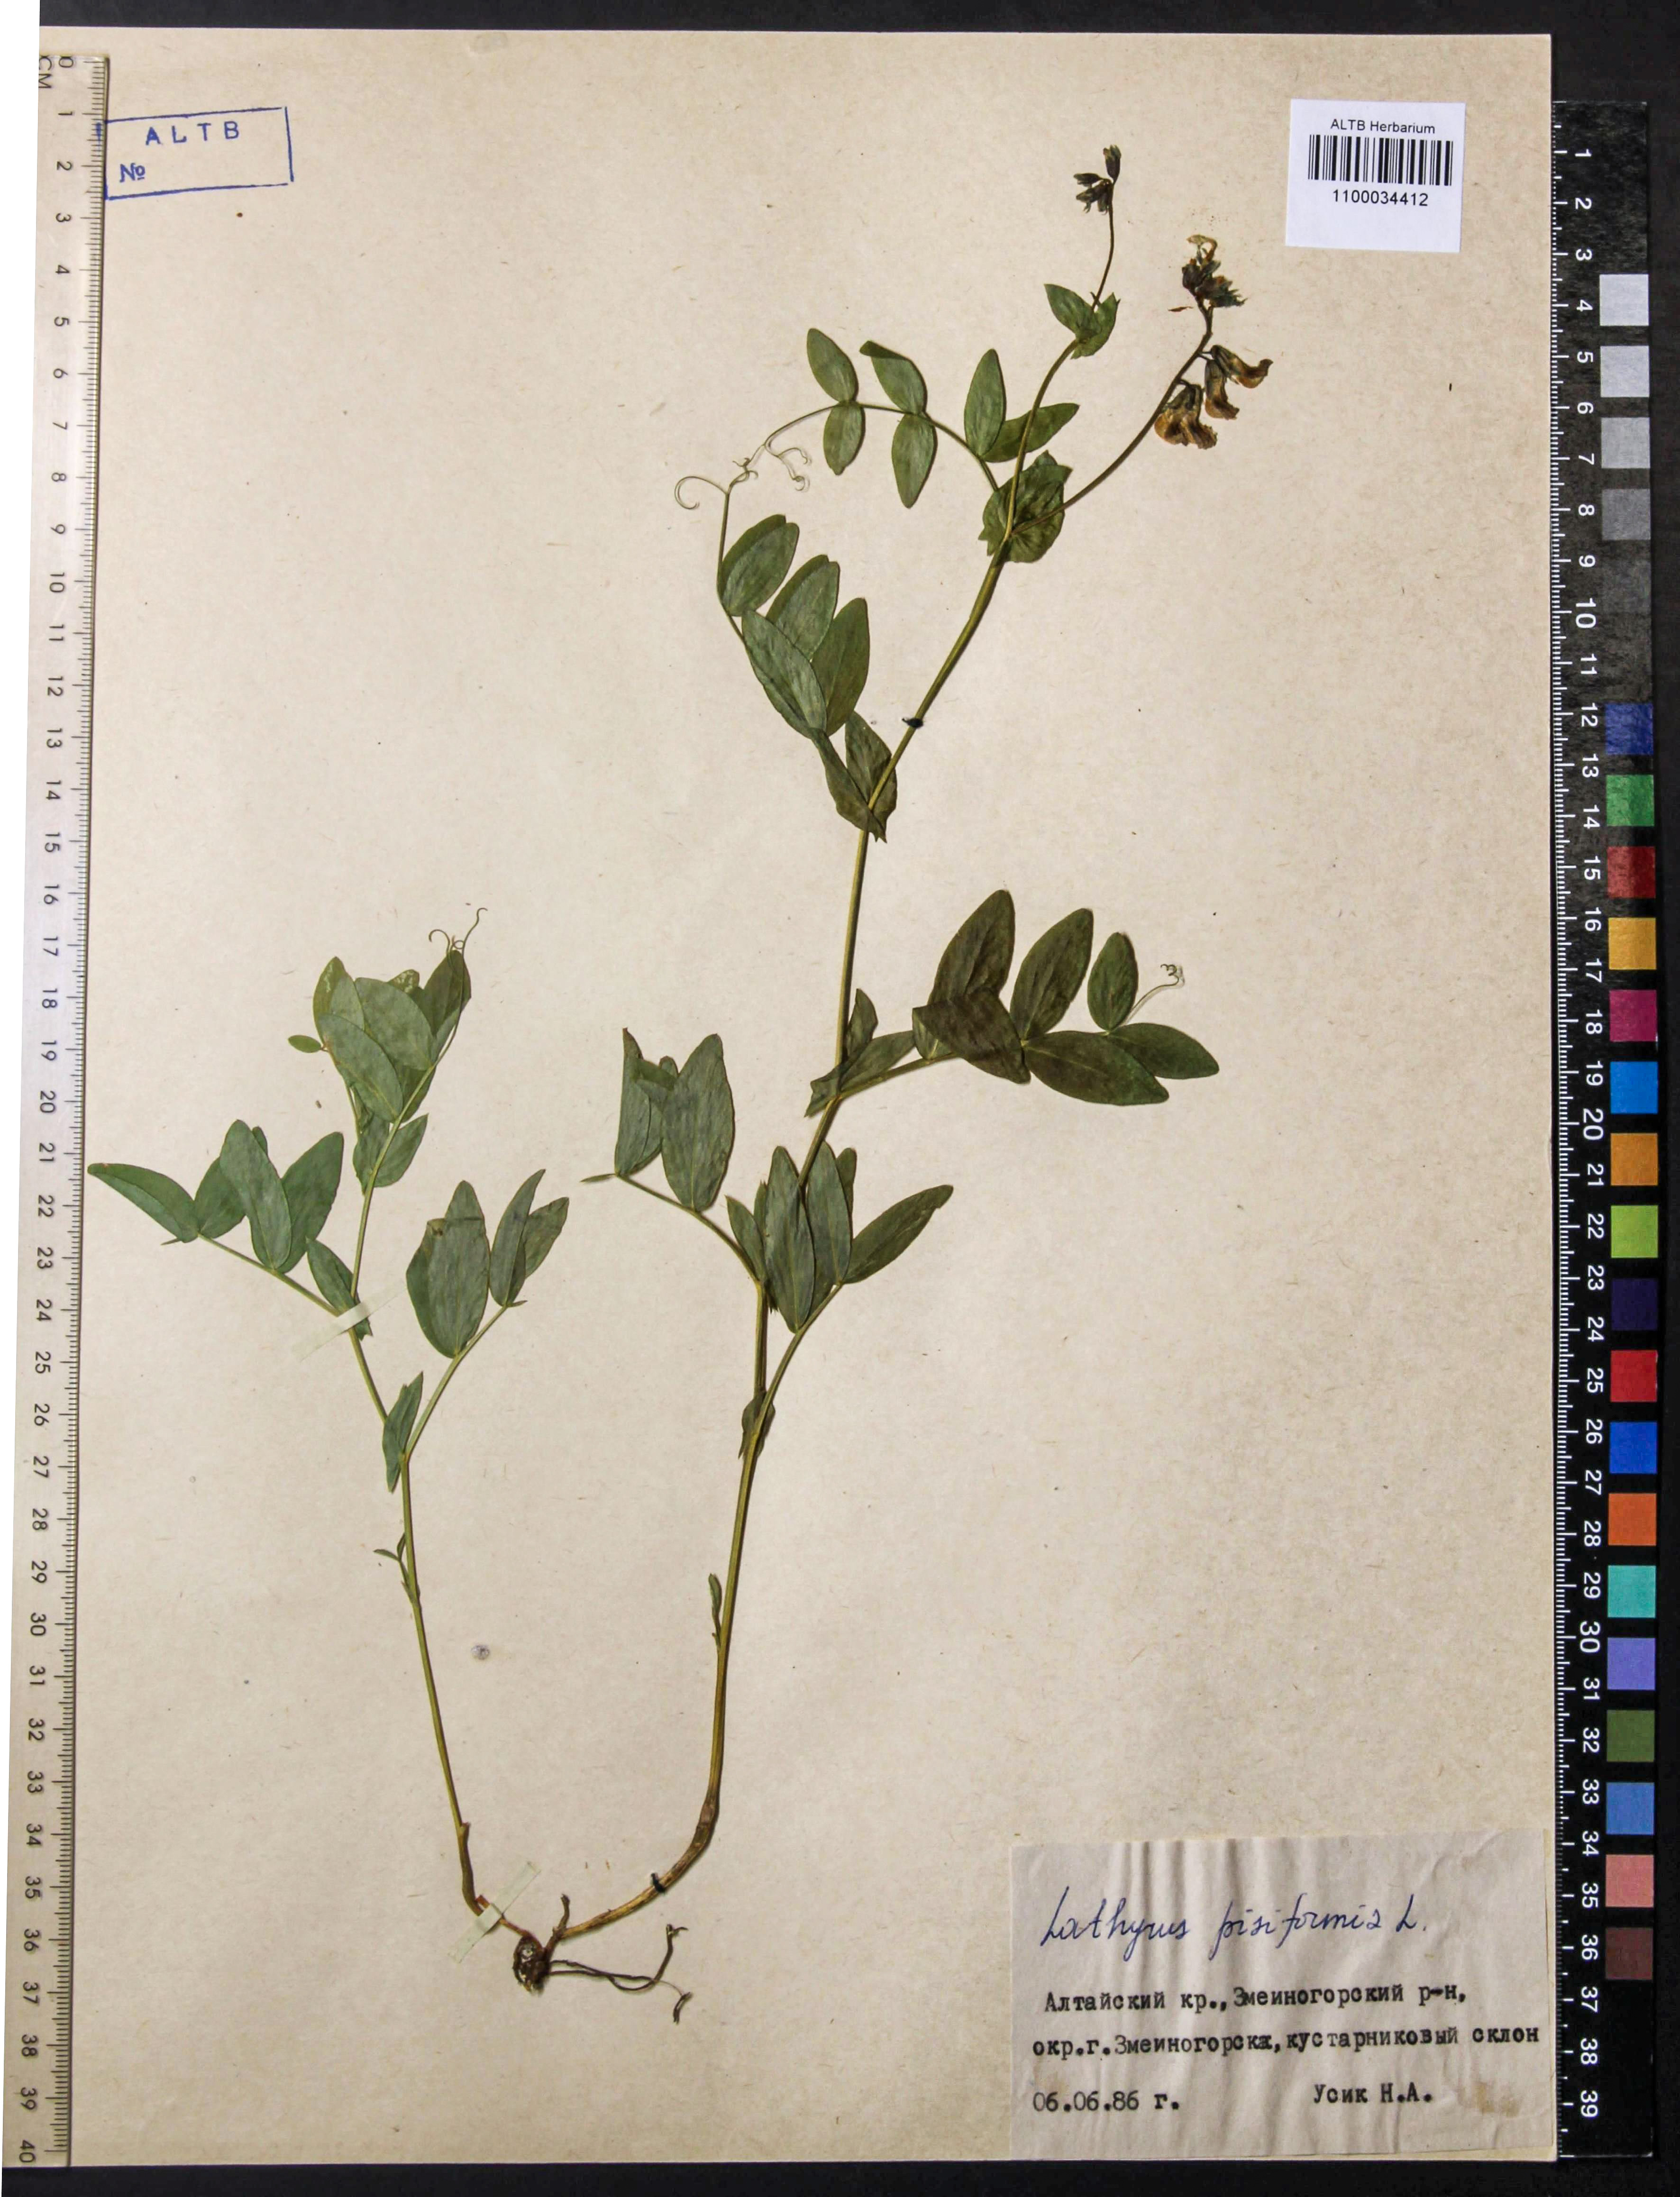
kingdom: Plantae
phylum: Tracheophyta
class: Magnoliopsida
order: Fabales
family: Fabaceae
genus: Lathyrus
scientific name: Lathyrus pisiformis
